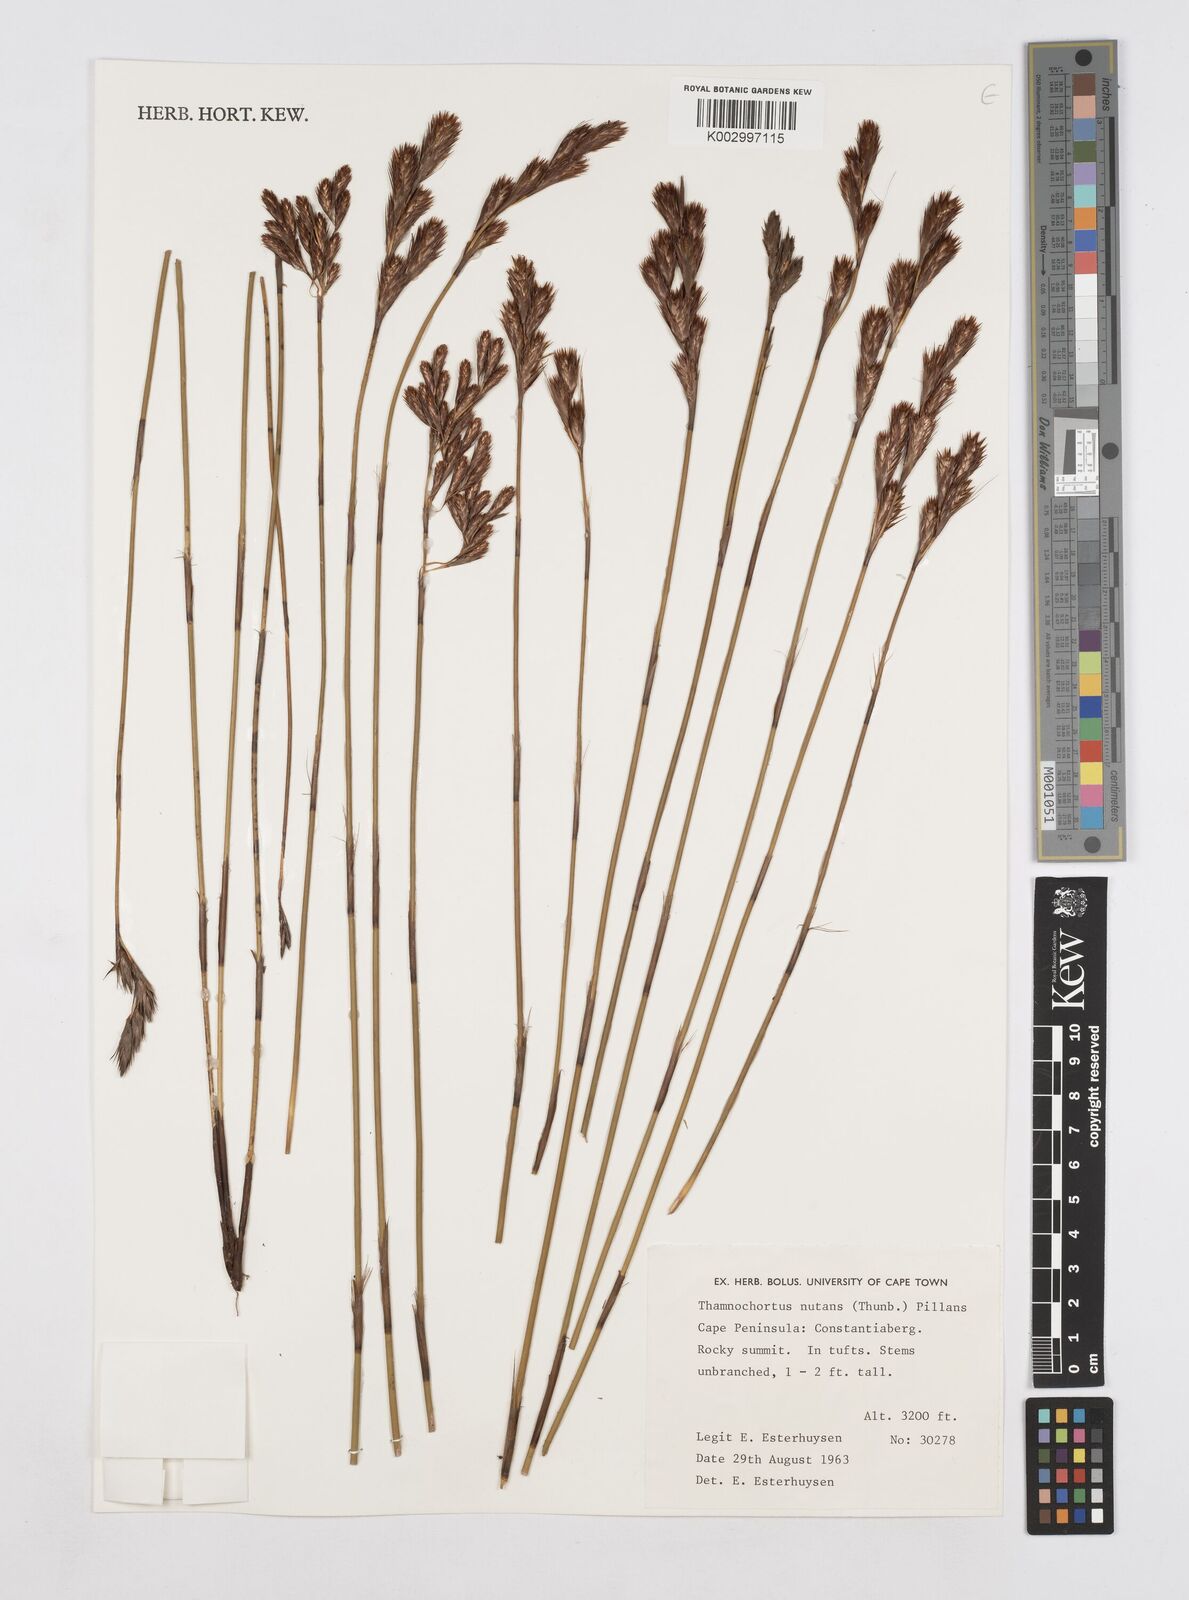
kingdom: Plantae
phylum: Tracheophyta
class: Liliopsida
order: Poales
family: Restionaceae
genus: Thamnochortus
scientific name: Thamnochortus nutans
